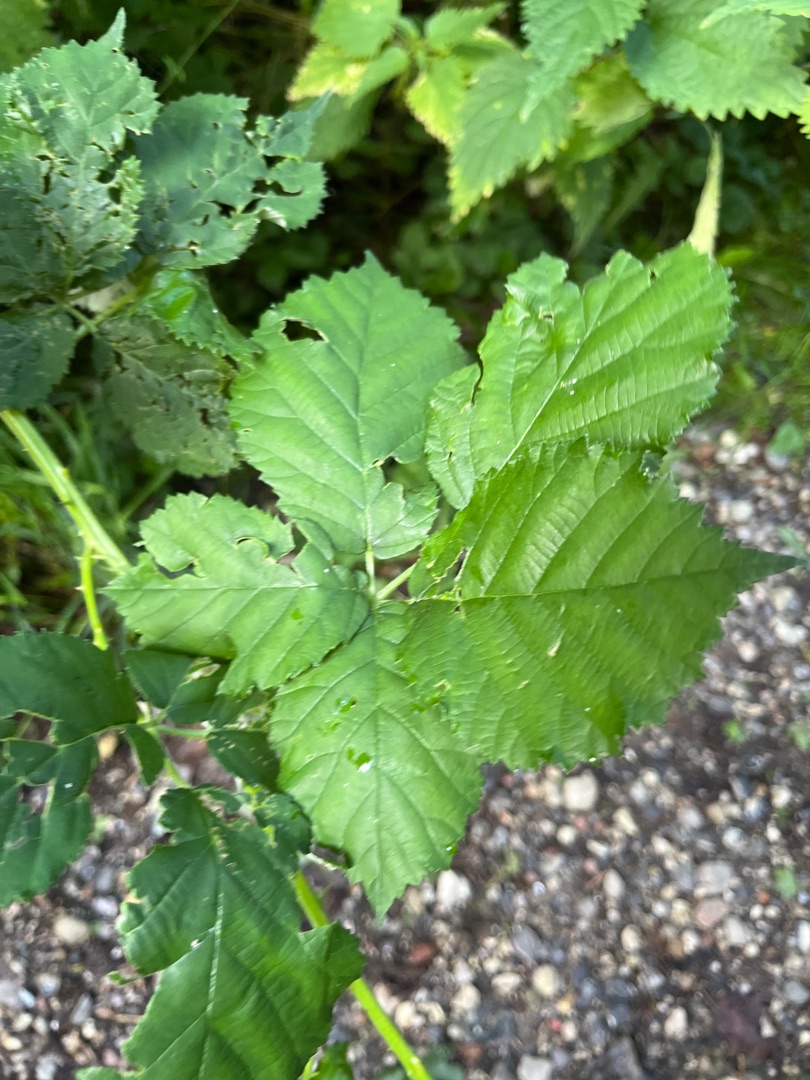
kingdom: Plantae
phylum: Tracheophyta
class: Magnoliopsida
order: Rosales
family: Rosaceae
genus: Rubus
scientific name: Rubus
